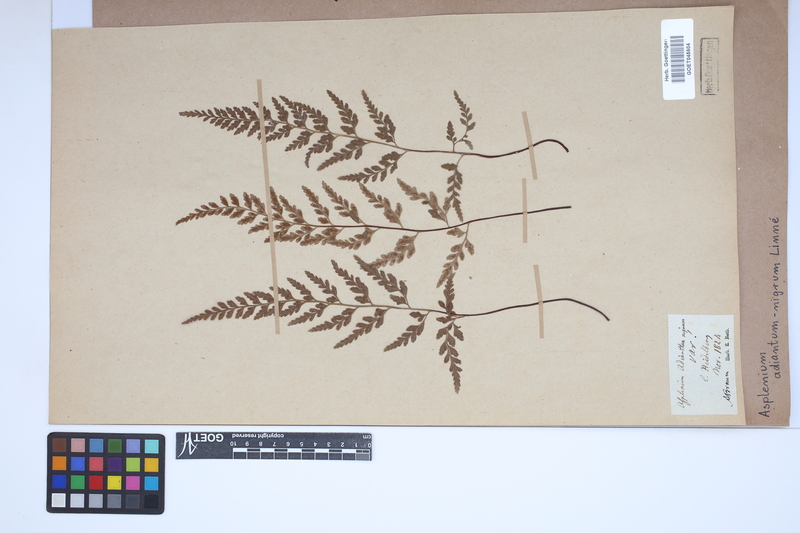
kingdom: Plantae
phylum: Tracheophyta
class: Polypodiopsida
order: Polypodiales
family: Aspleniaceae
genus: Asplenium
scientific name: Asplenium adiantum-nigrum
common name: Black spleenwort
